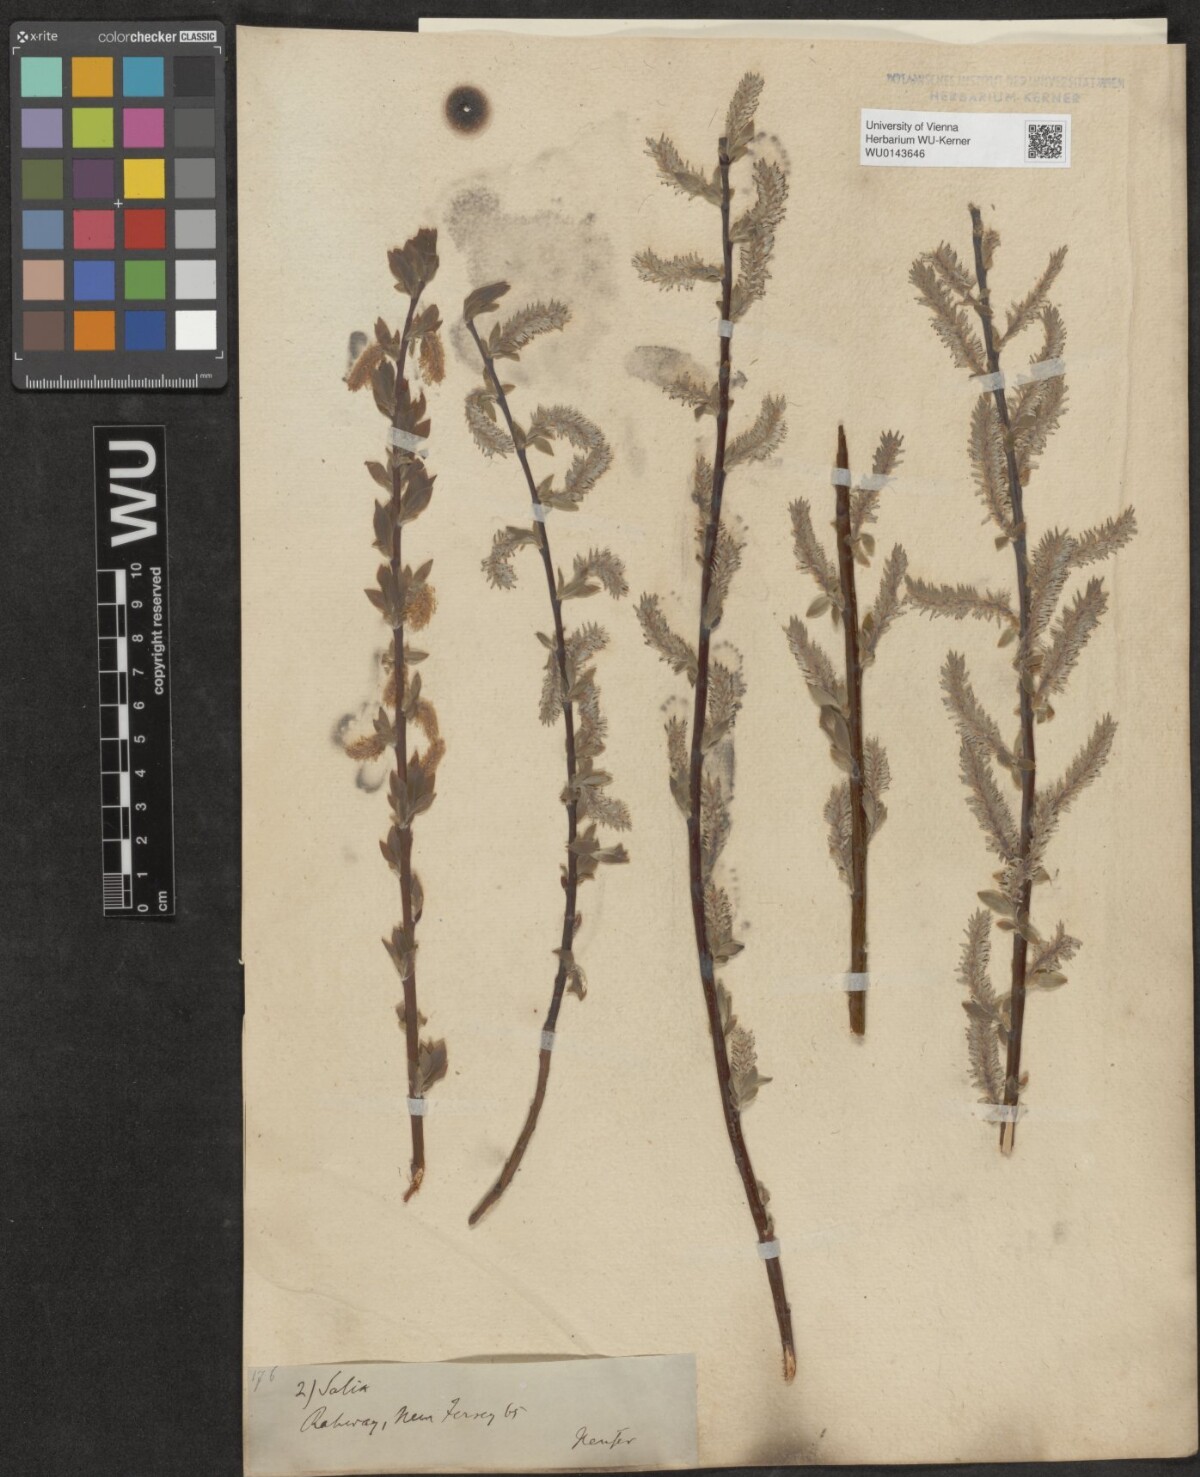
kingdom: Plantae
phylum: Tracheophyta
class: Magnoliopsida
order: Malpighiales
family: Salicaceae
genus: Salix
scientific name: Salix
